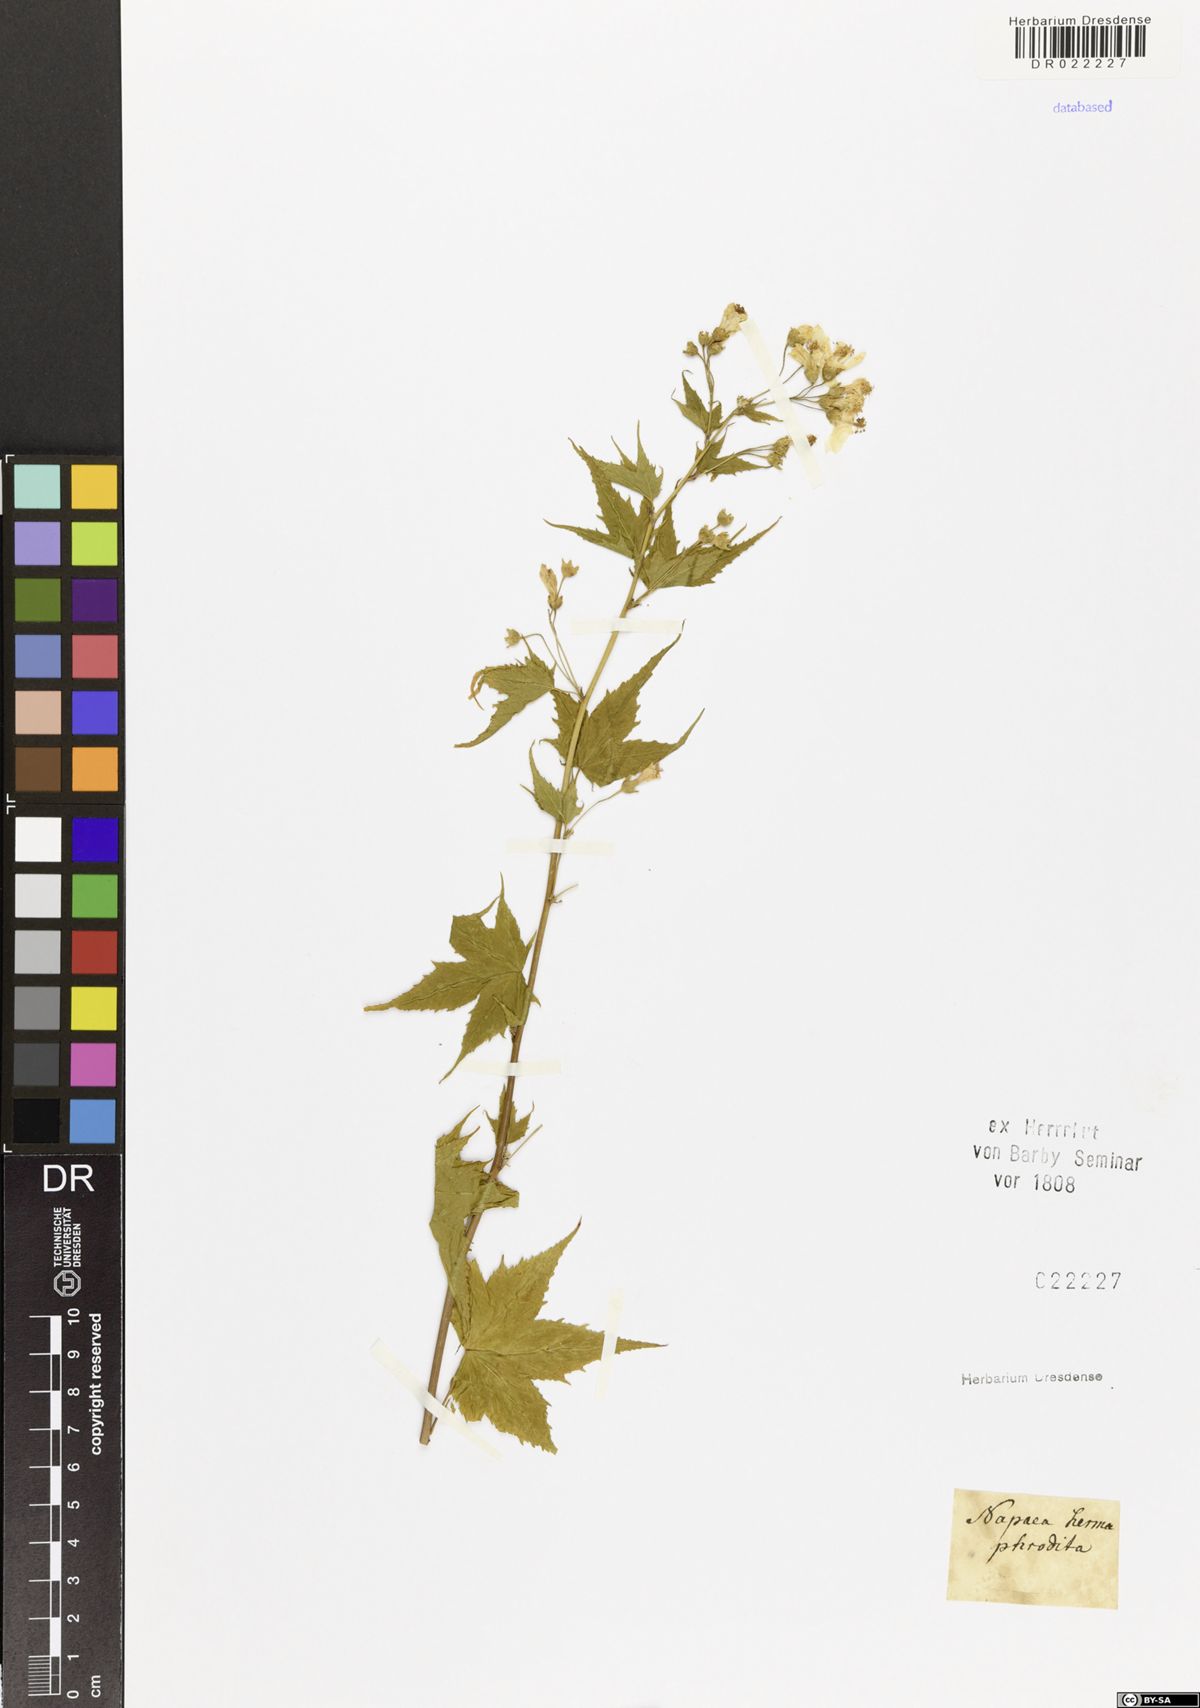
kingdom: Plantae
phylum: Tracheophyta
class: Magnoliopsida
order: Malvales
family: Malvaceae
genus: Ripariosida
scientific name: Ripariosida hermaphrodita
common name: Virginia fanpetals
